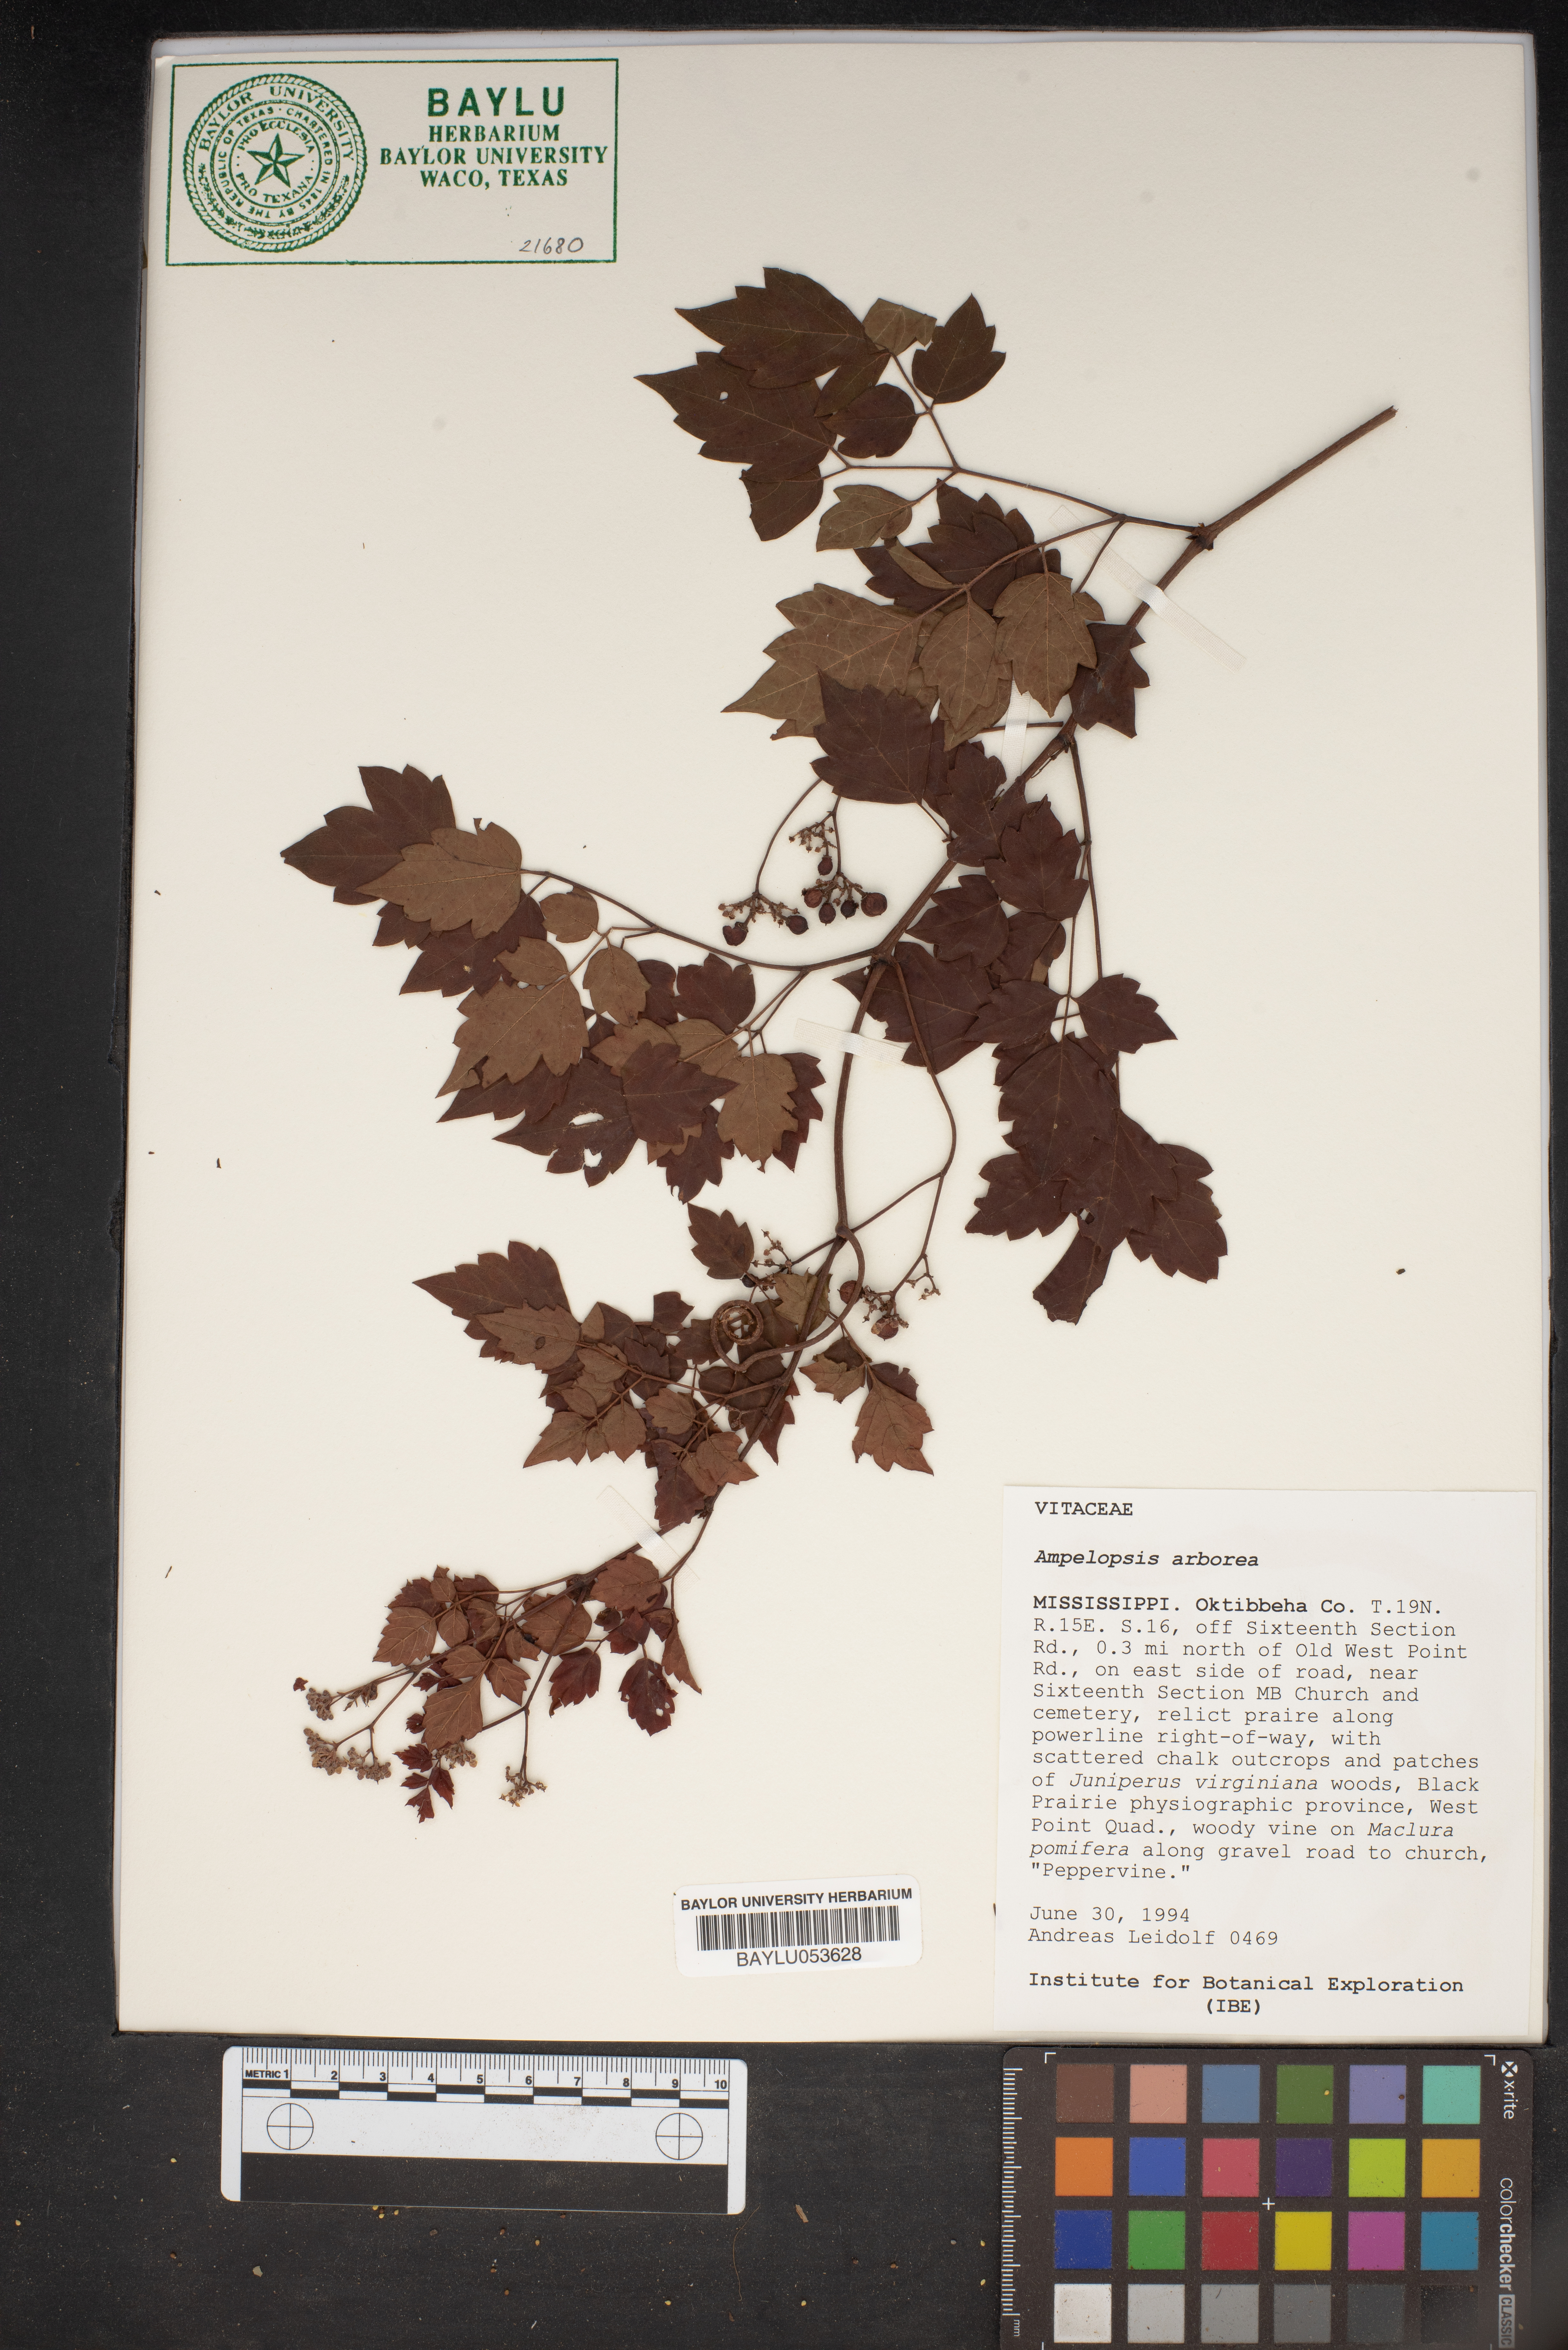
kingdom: Plantae
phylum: Tracheophyta
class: Magnoliopsida
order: Vitales
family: Vitaceae
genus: Nekemias
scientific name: Nekemias arborea
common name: Peppervine
